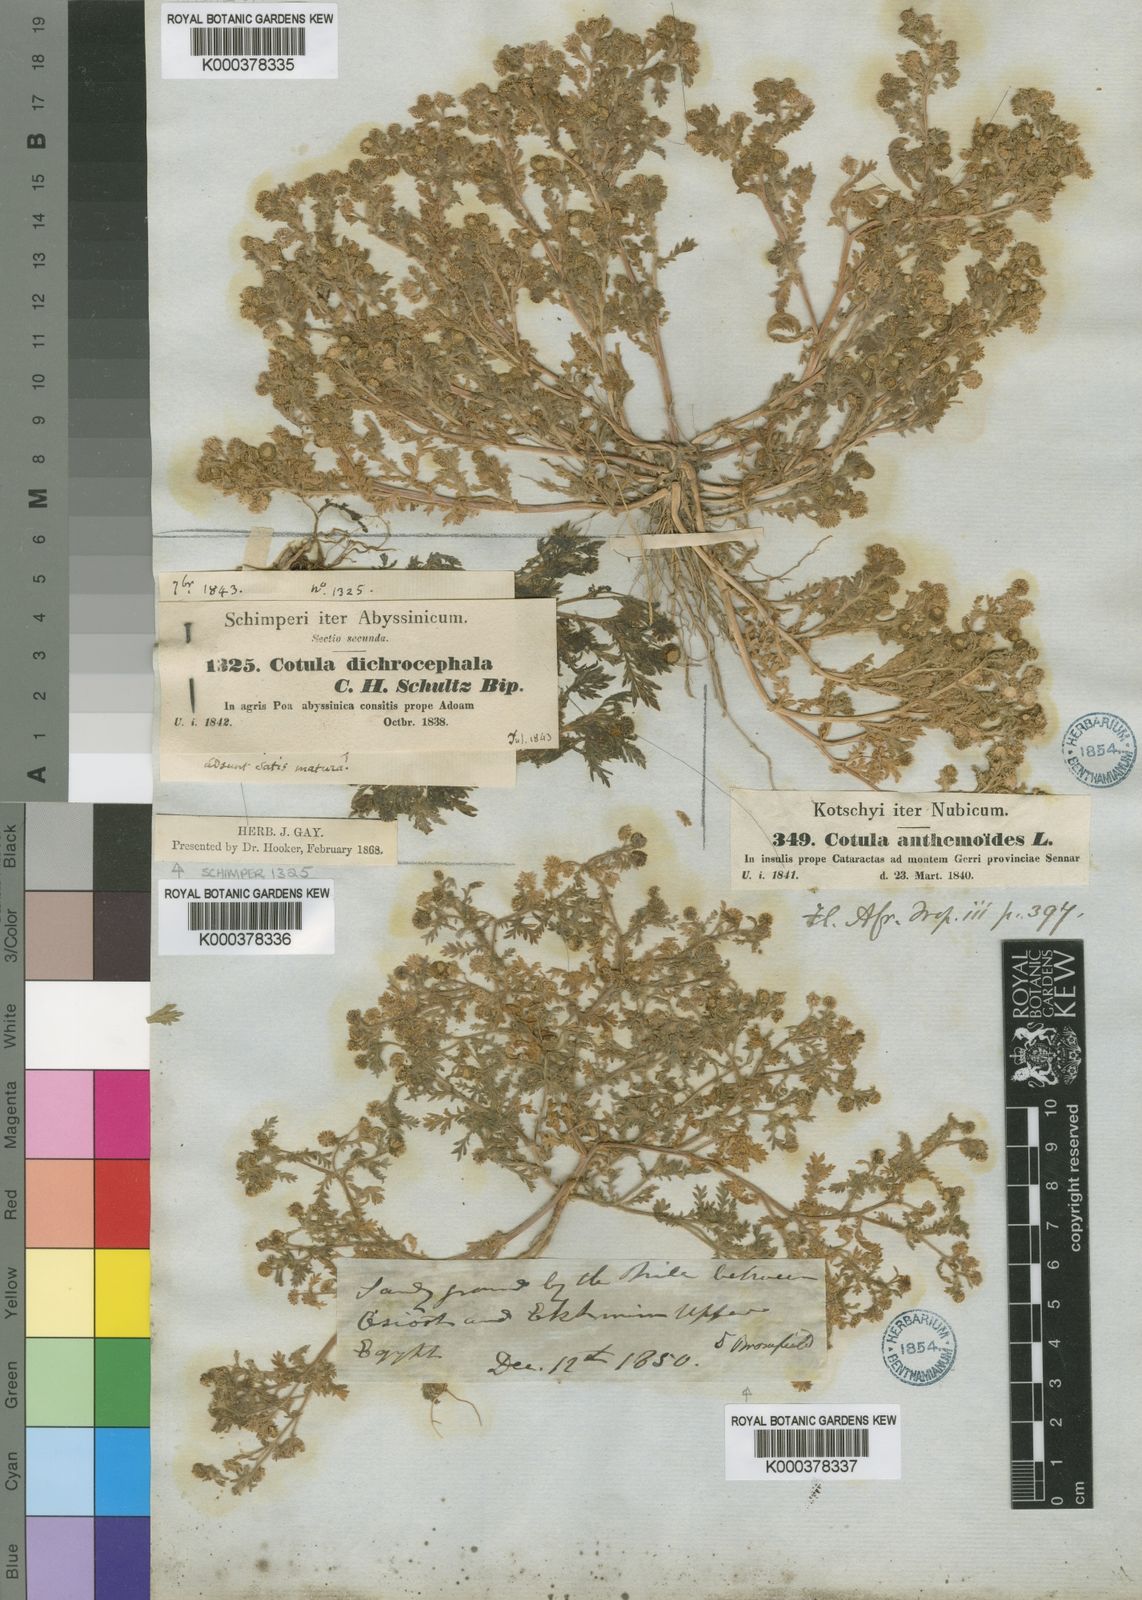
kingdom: Plantae
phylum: Tracheophyta
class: Magnoliopsida
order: Asterales
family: Asteraceae
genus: Cotula
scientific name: Cotula anthemoides
